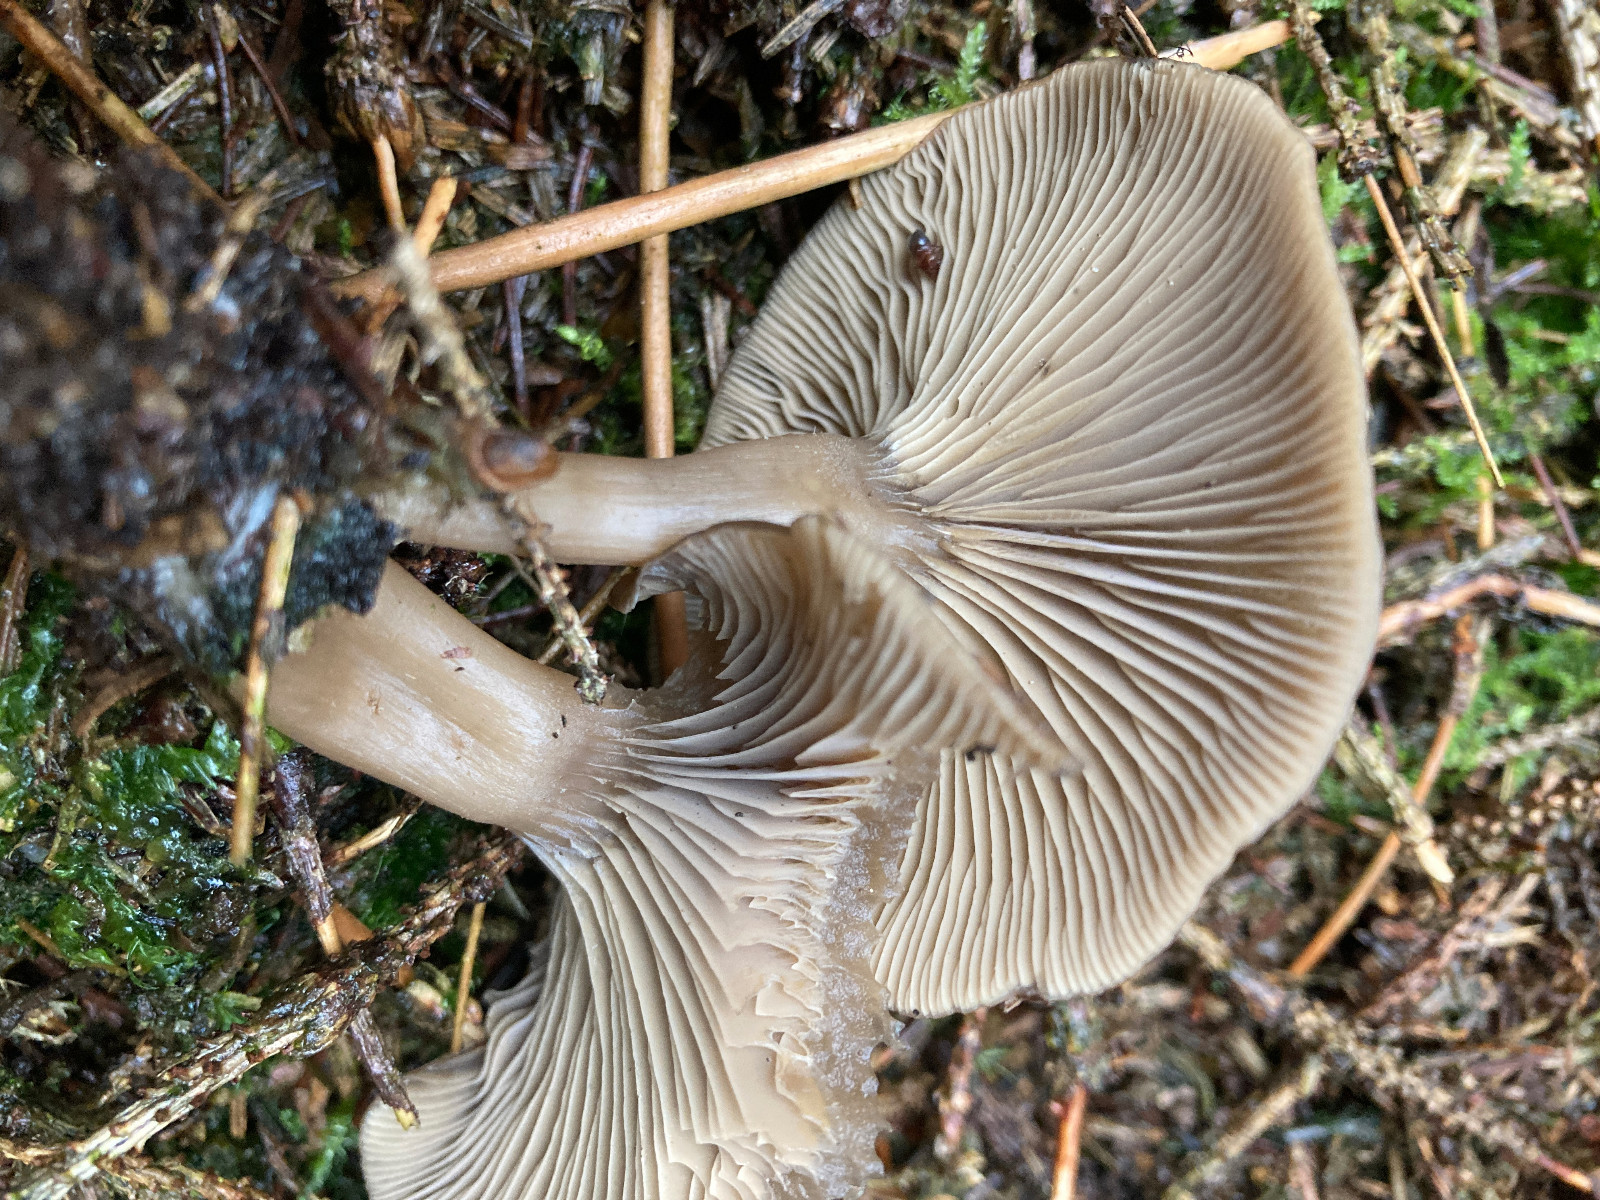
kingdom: Fungi
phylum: Basidiomycota
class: Agaricomycetes
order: Agaricales
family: Tricholomataceae
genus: Clitocybe
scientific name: Clitocybe
